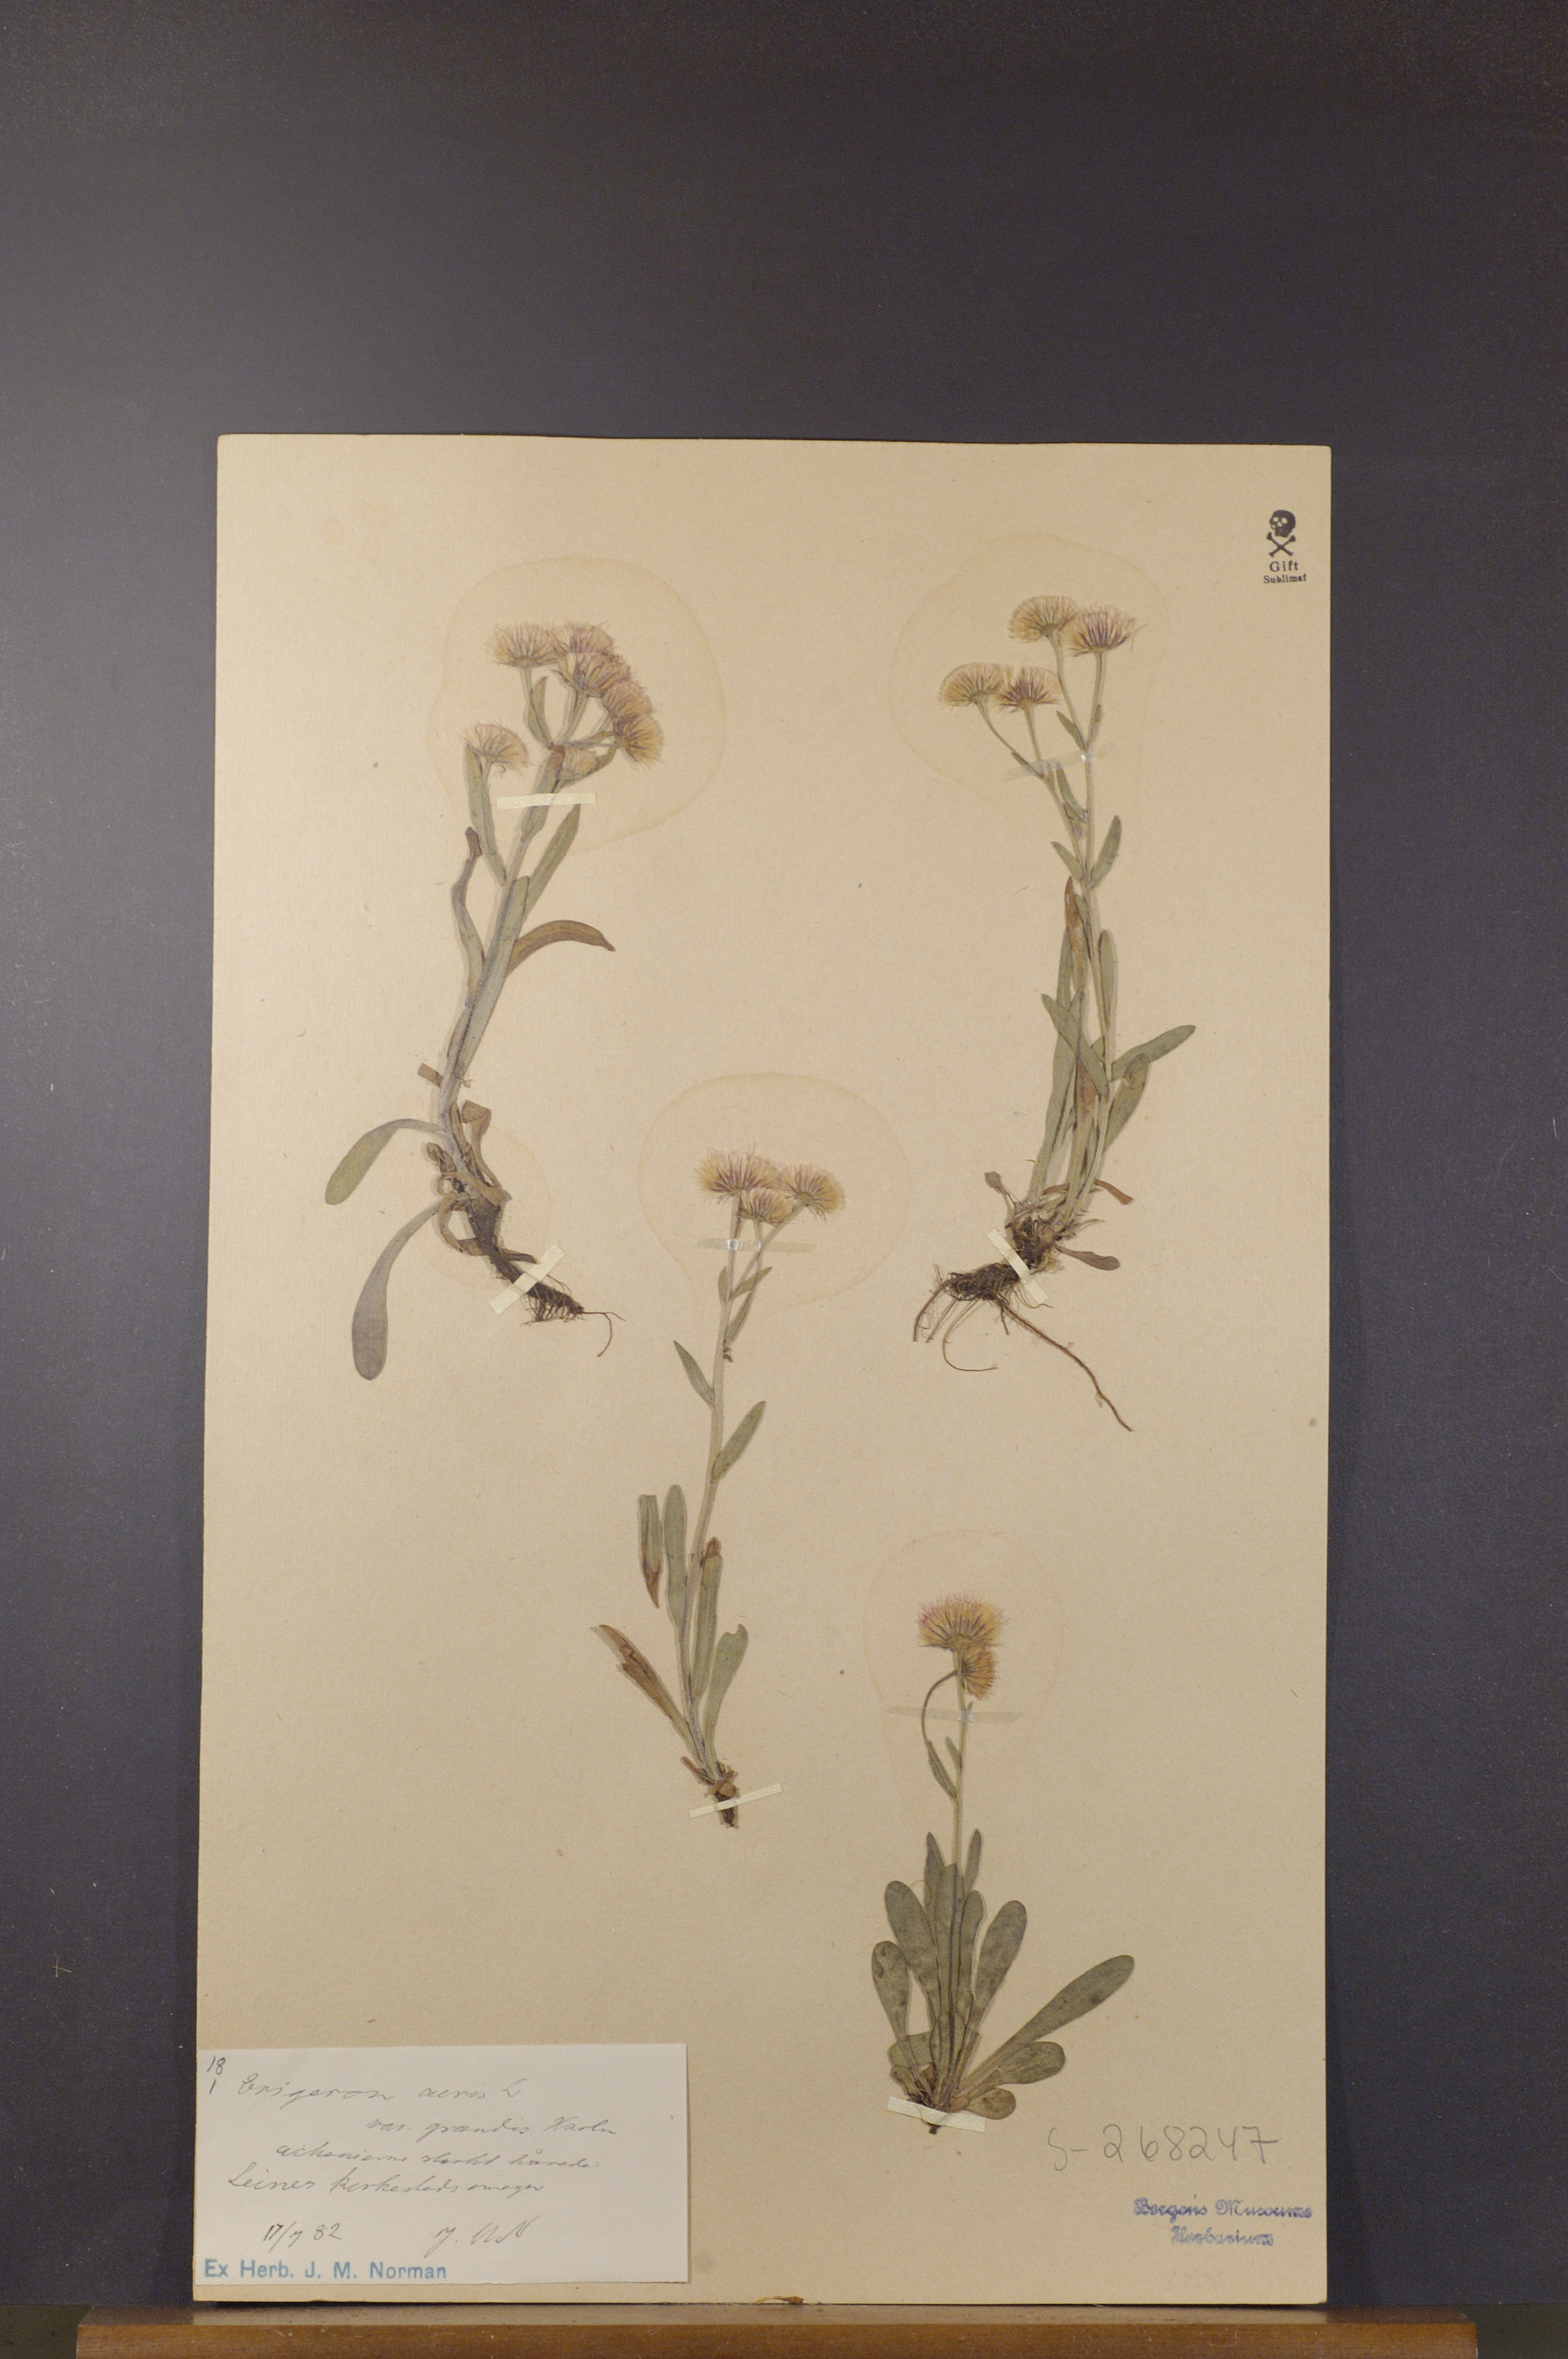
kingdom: Plantae
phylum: Tracheophyta
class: Magnoliopsida
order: Asterales
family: Asteraceae
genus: Erigeron
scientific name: Erigeron acris
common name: Blue fleabane
